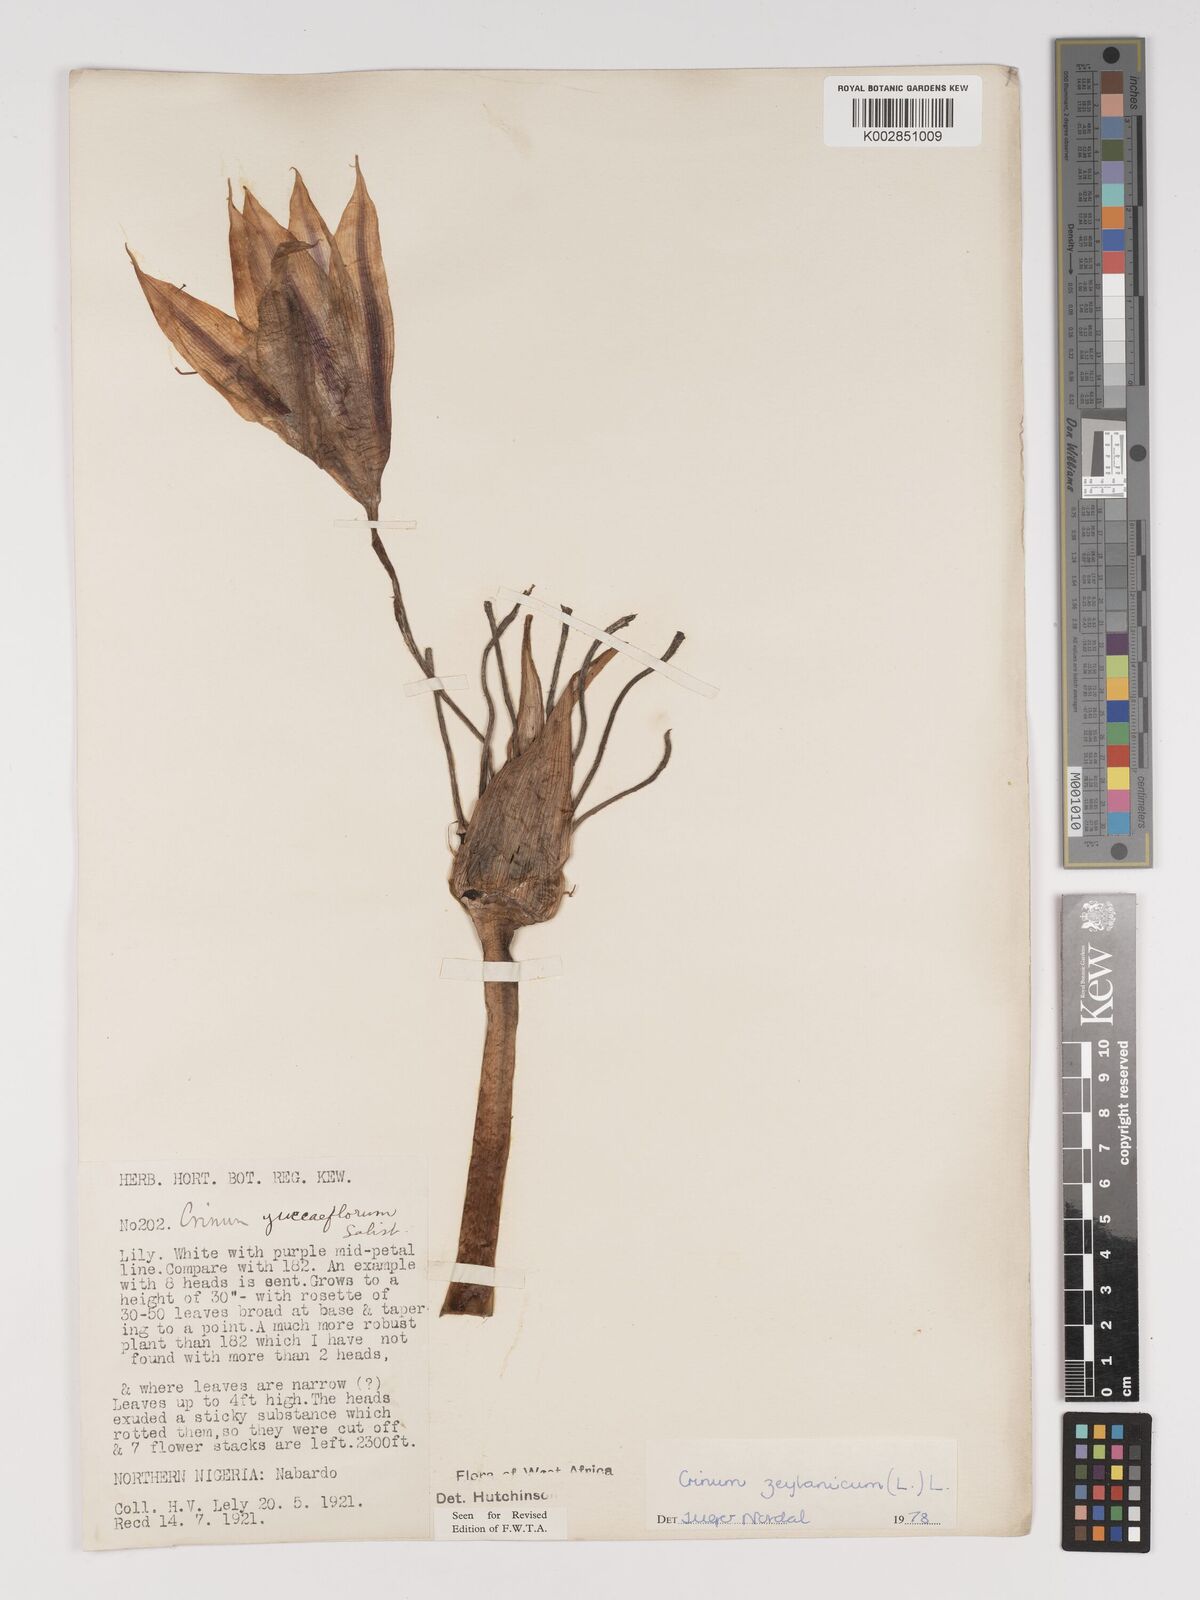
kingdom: Plantae
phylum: Tracheophyta
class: Liliopsida
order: Asparagales
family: Amaryllidaceae
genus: Crinum
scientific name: Crinum zeylanicum
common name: Ceylon swamplily
